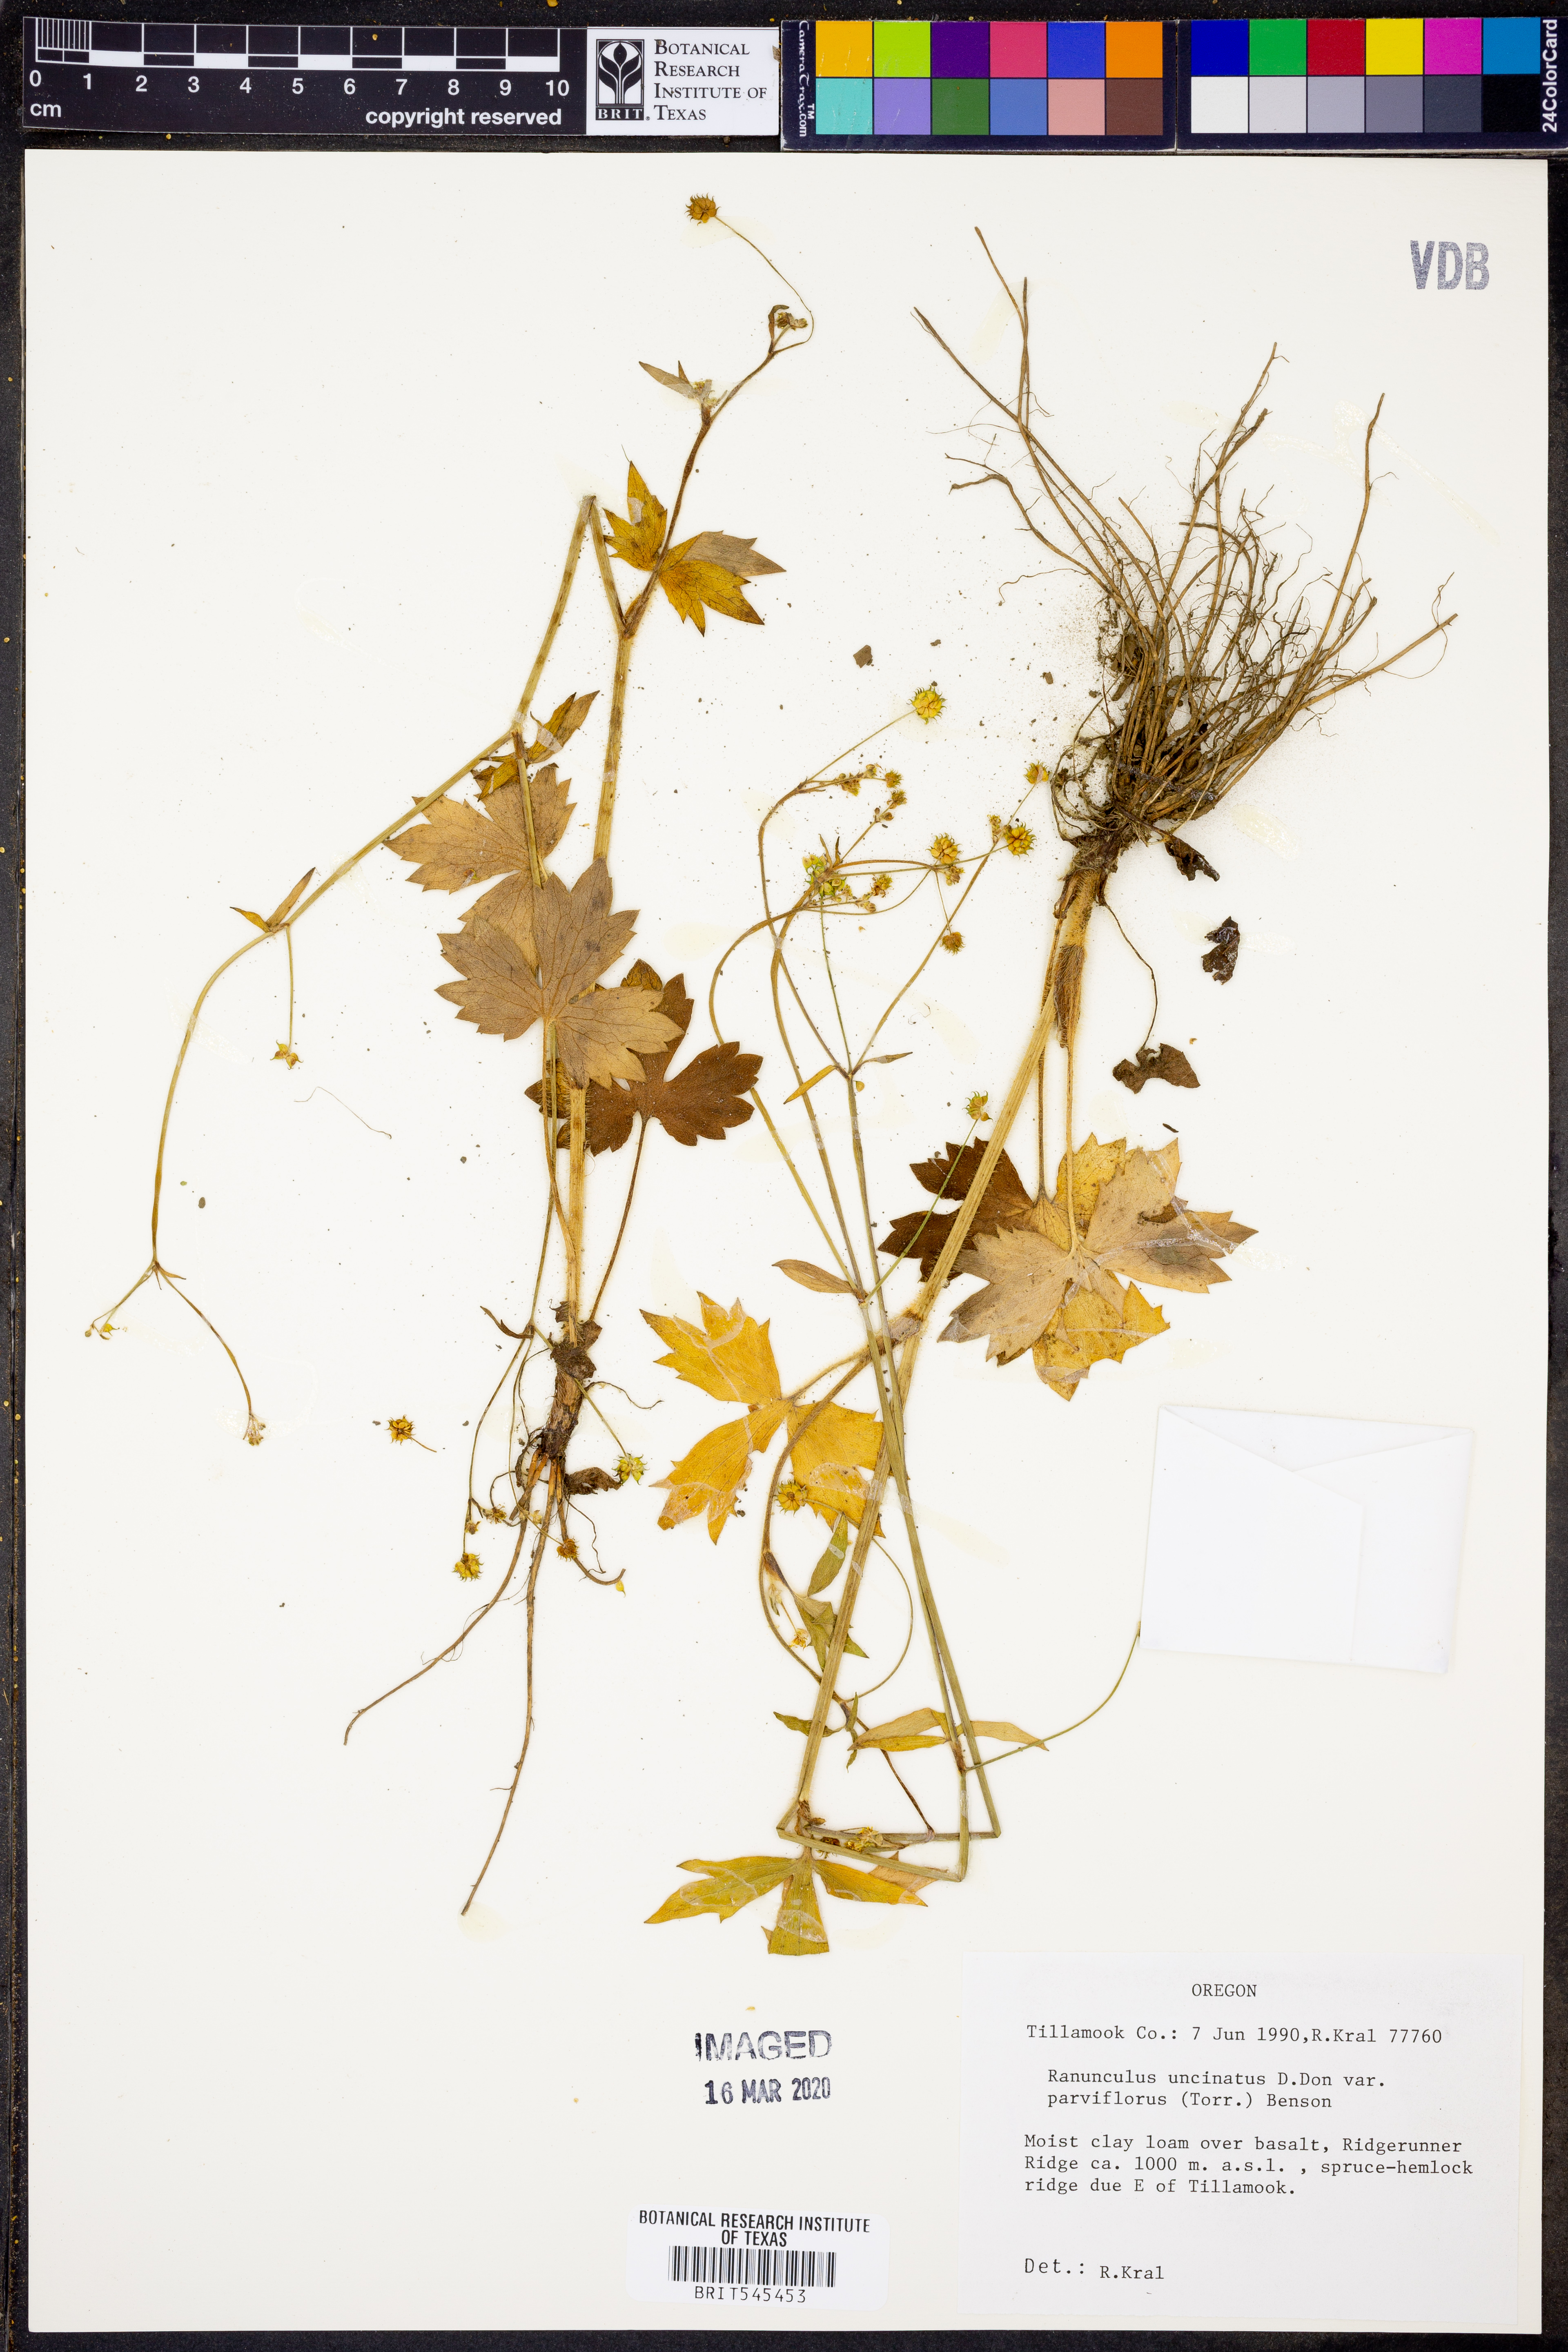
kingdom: Plantae
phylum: Tracheophyta
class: Magnoliopsida
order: Ranunculales
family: Ranunculaceae
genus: Ranunculus
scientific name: Ranunculus uncinatus
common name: Little buttercup
